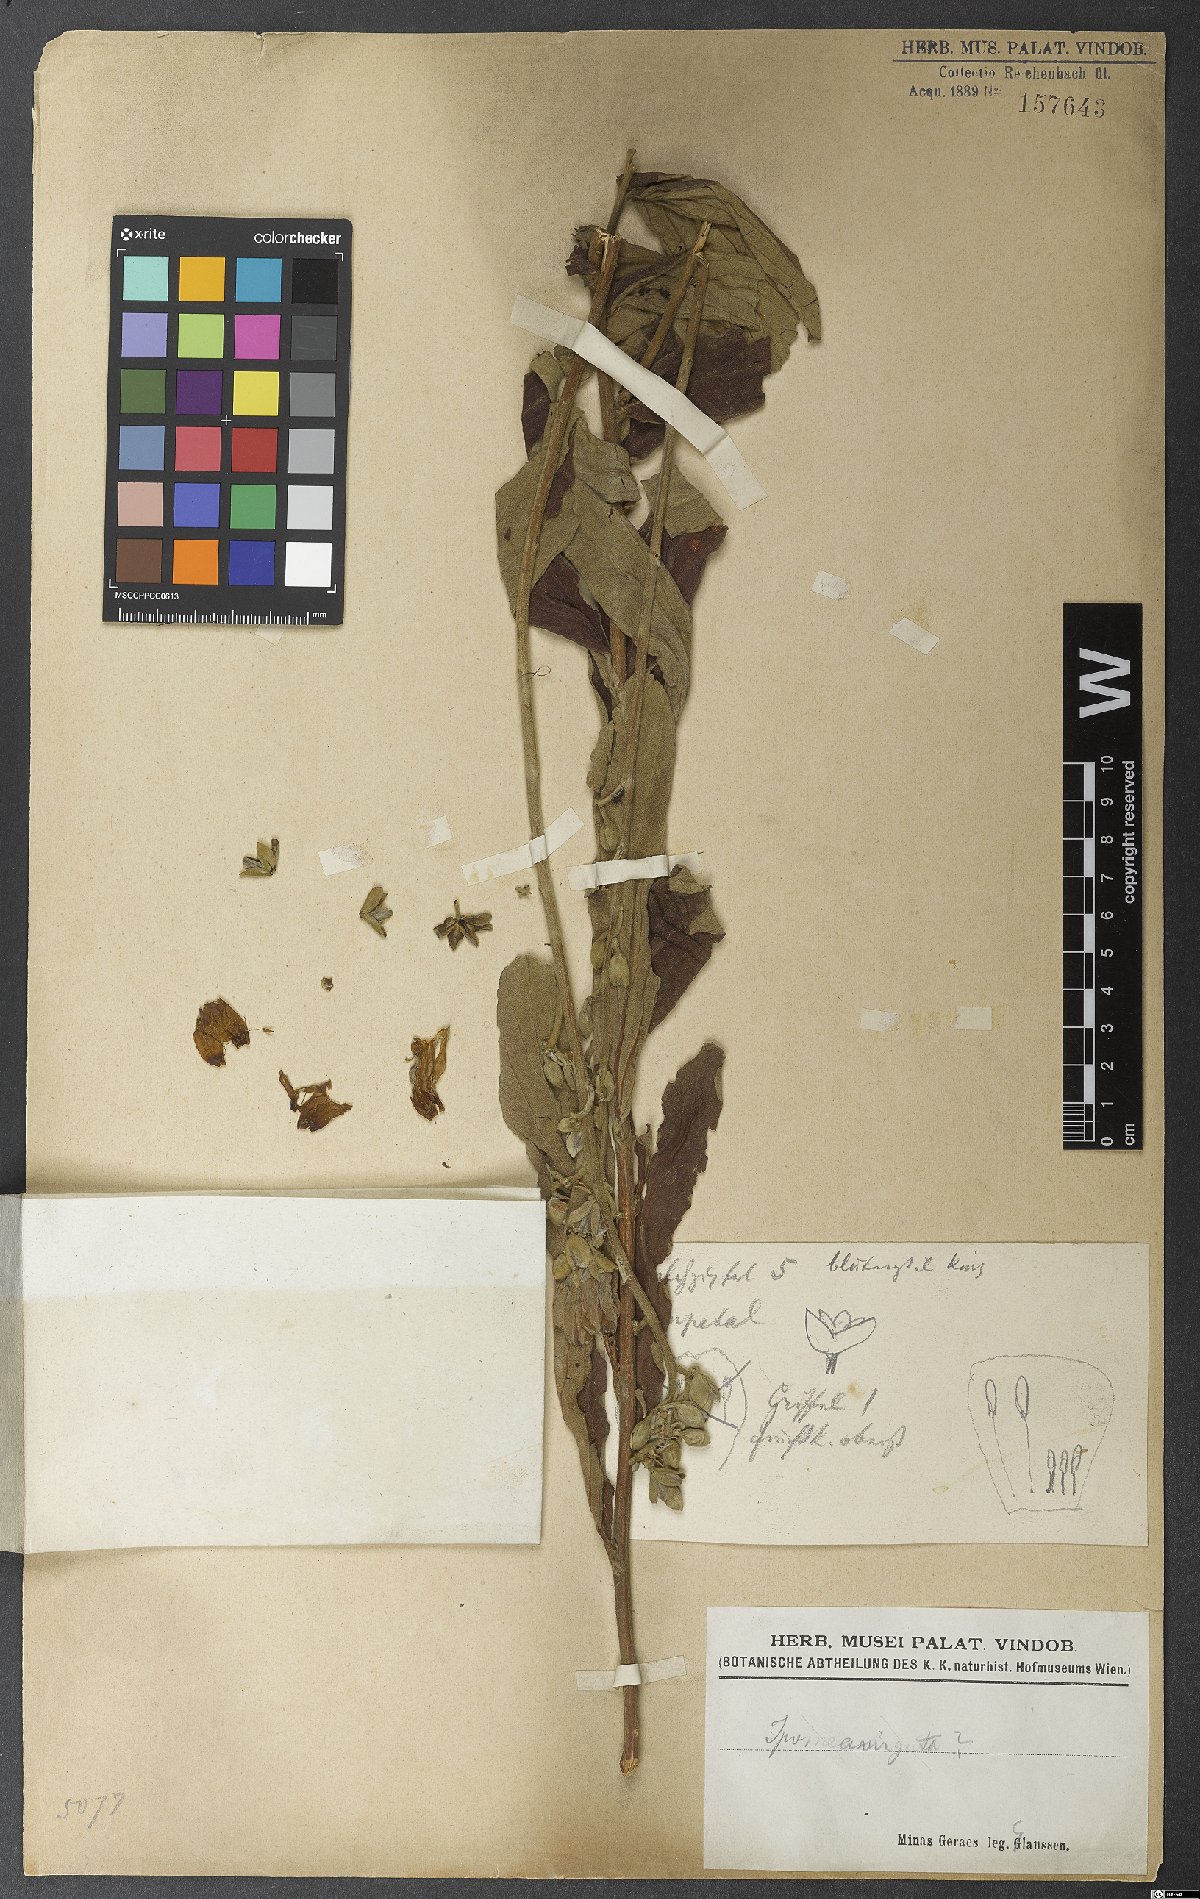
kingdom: Plantae
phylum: Tracheophyta
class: Magnoliopsida
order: Solanales
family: Convolvulaceae
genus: Ipomoea
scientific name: Ipomoea
